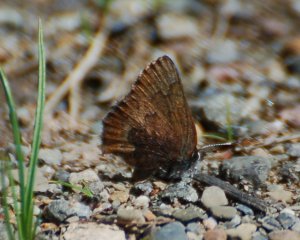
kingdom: Animalia
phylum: Arthropoda
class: Insecta
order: Lepidoptera
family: Lycaenidae
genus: Incisalia
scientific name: Incisalia irioides
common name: Brown Elfin
